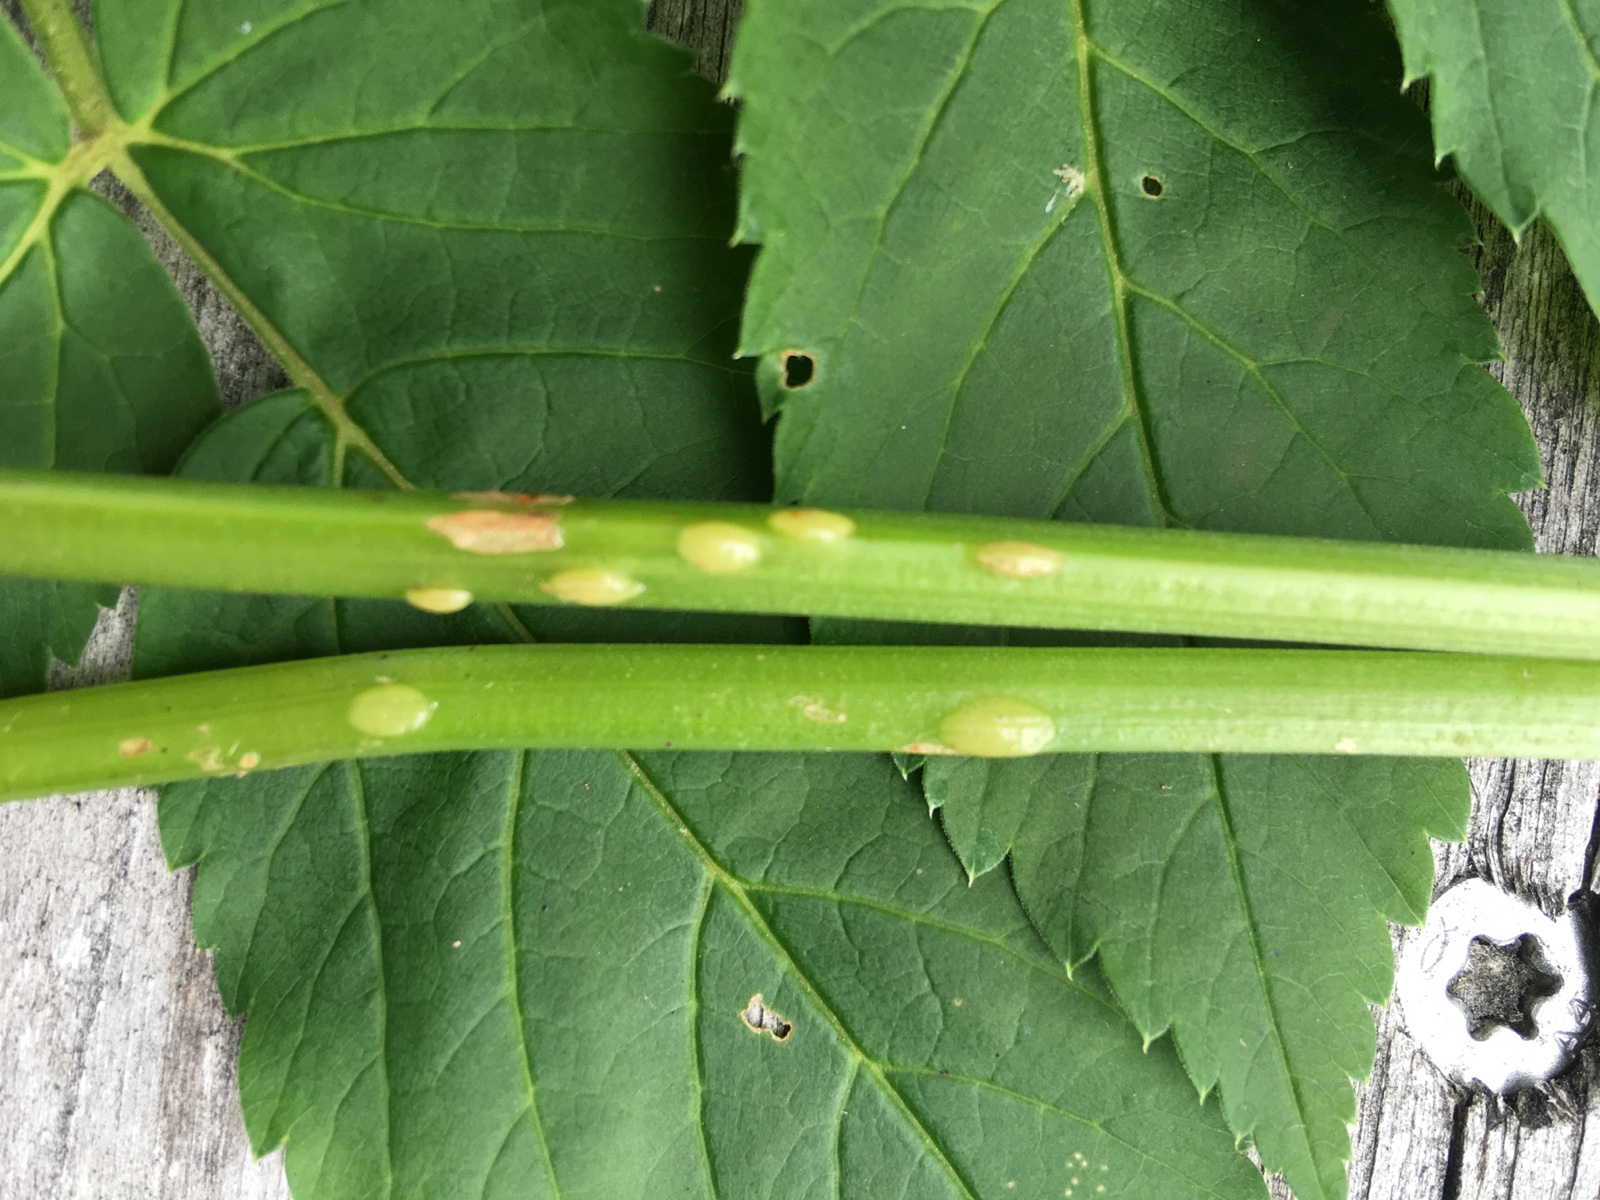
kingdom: Fungi
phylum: Ascomycota
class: Taphrinomycetes
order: Taphrinales
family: Taphrinaceae
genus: Protomyces
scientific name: Protomyces macrosporus
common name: skvalderkål-vablesæk
